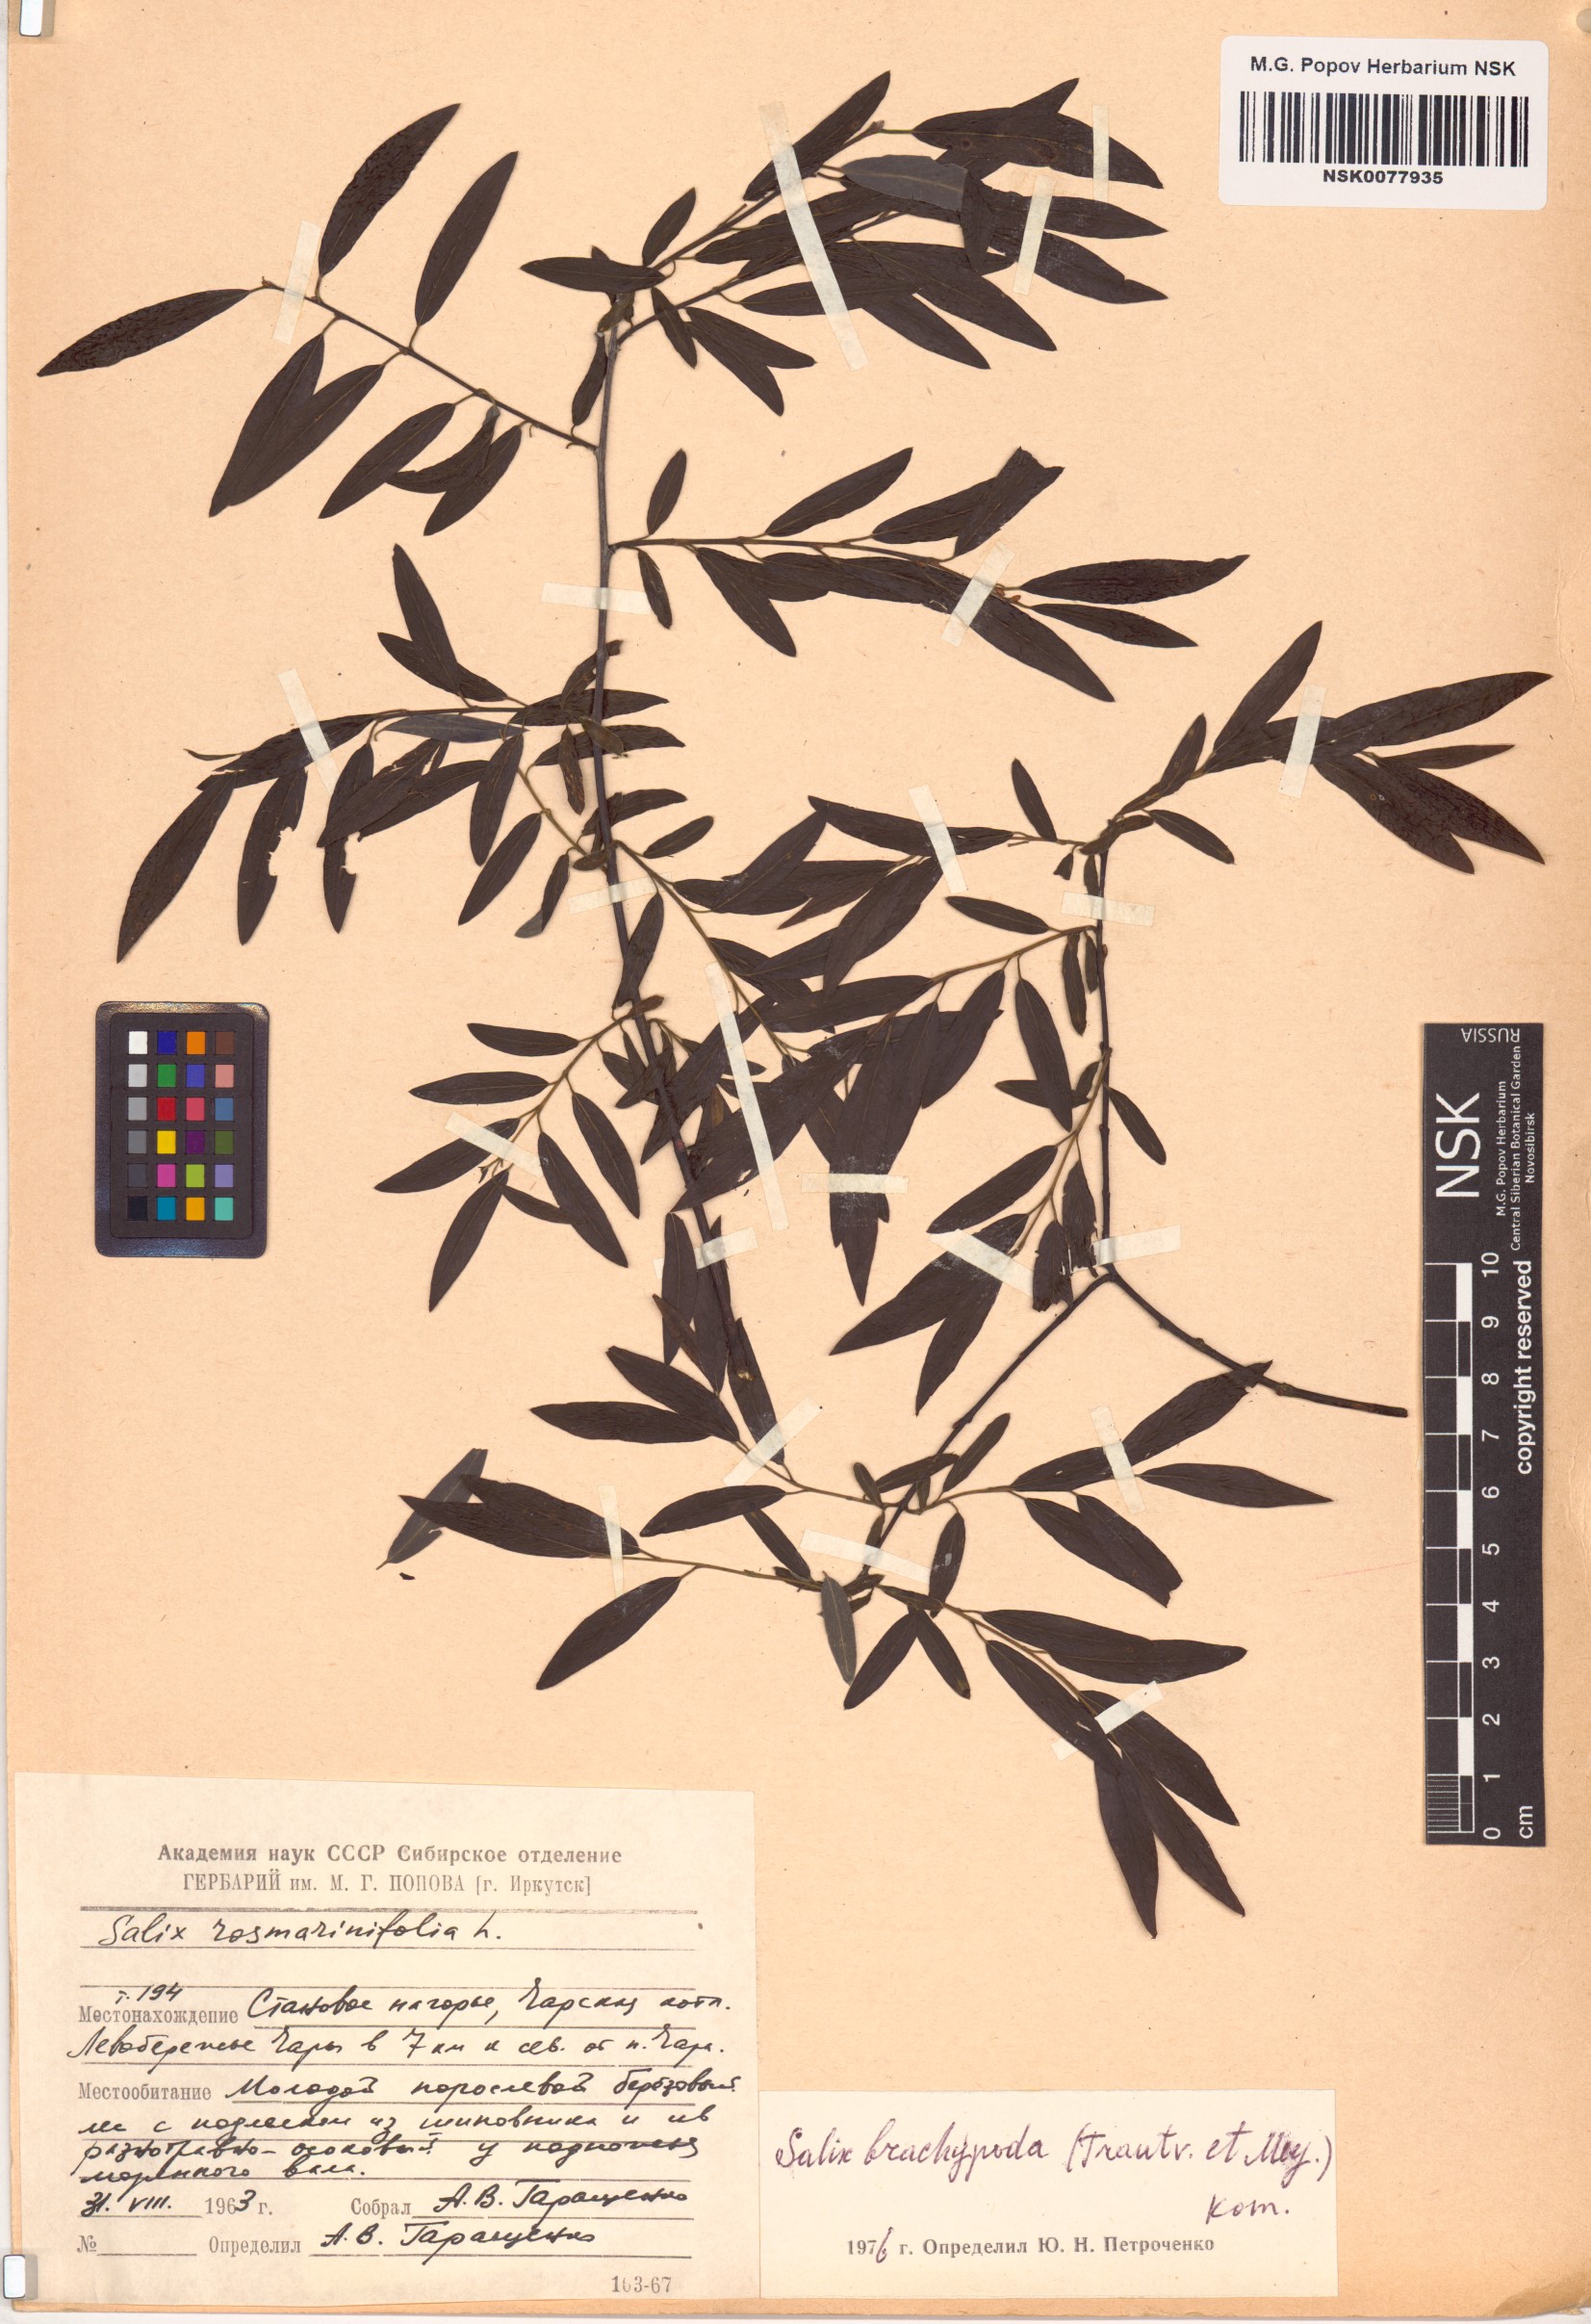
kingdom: Plantae
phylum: Tracheophyta
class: Magnoliopsida
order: Malpighiales
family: Salicaceae
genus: Salix
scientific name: Salix brachypoda
